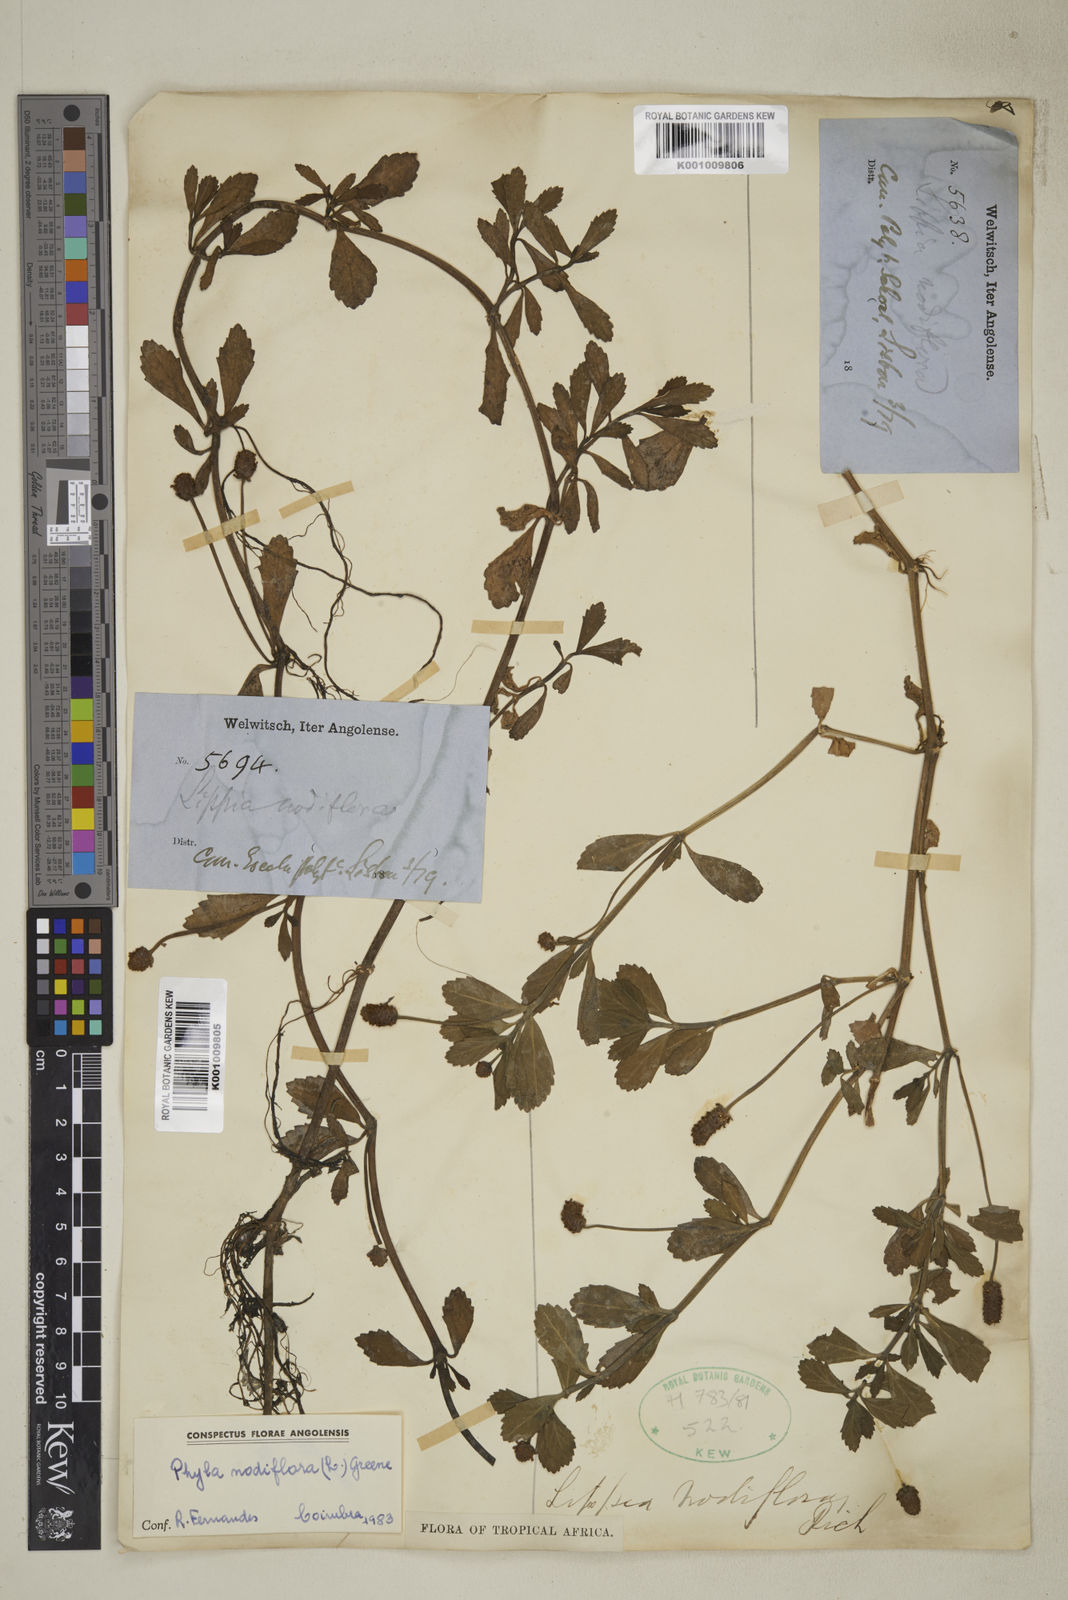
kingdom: Plantae
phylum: Tracheophyta
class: Magnoliopsida
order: Lamiales
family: Verbenaceae
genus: Phyla
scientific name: Phyla nodiflora
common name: Frogfruit
